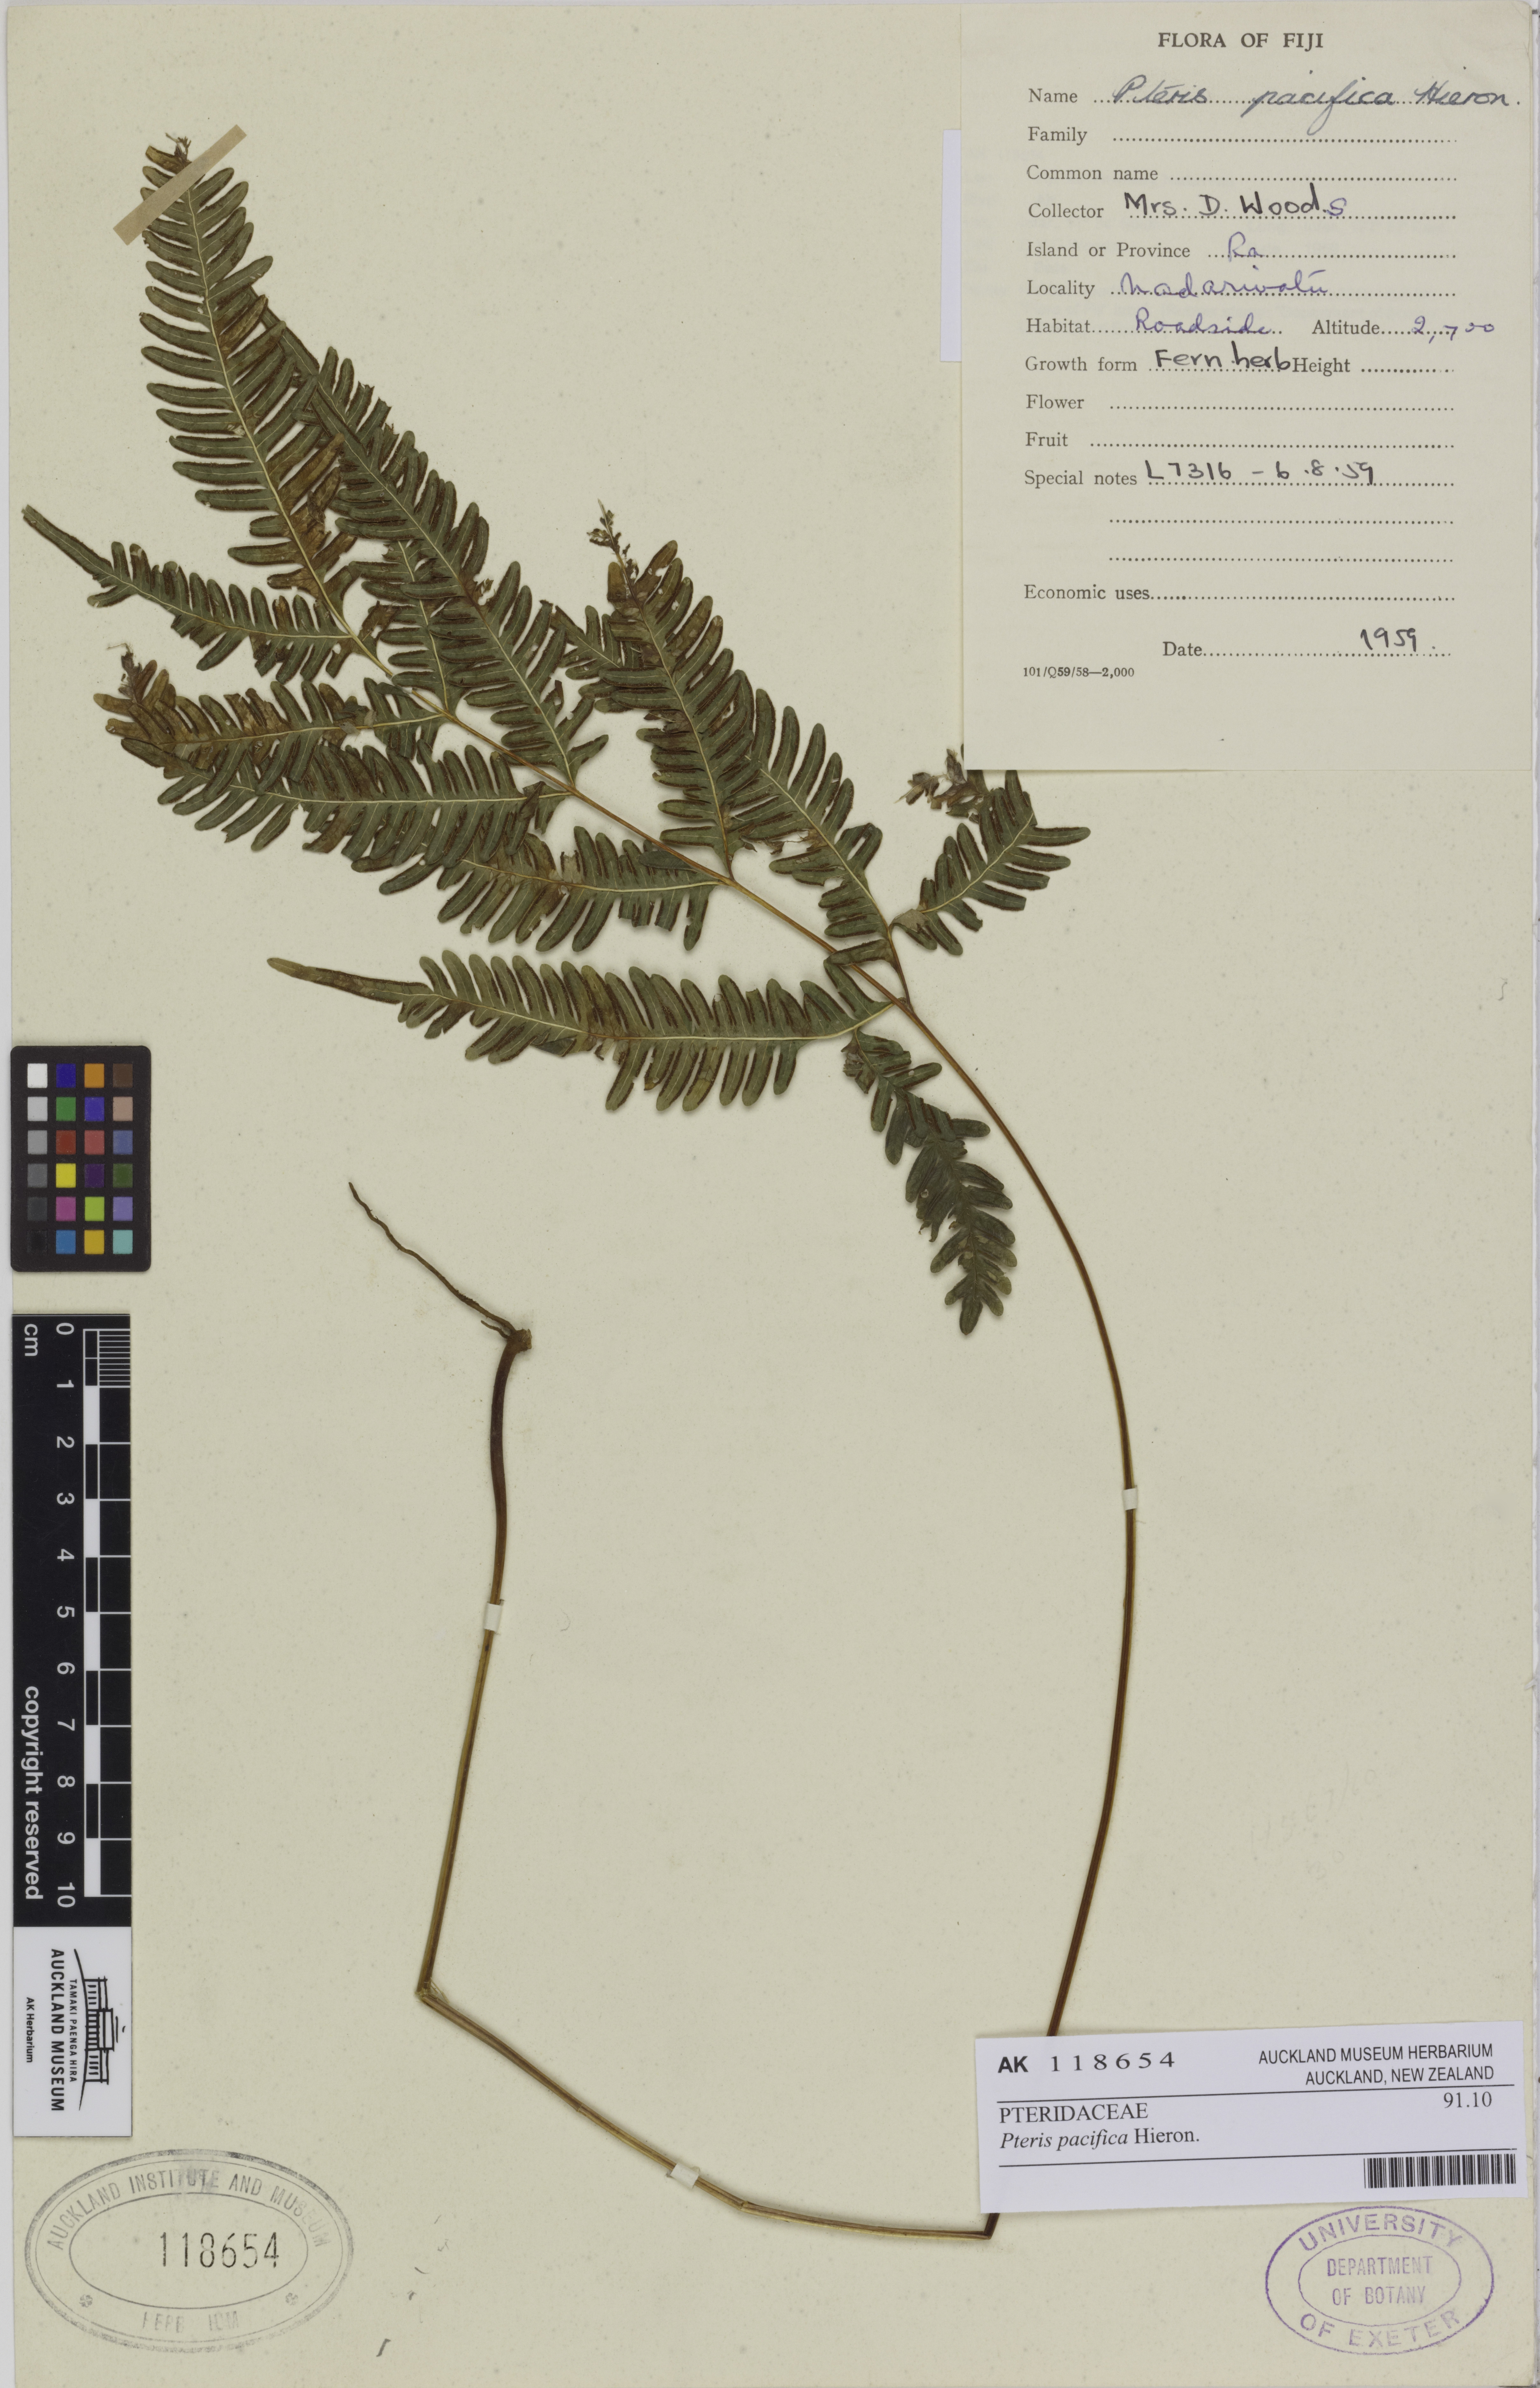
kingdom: Plantae
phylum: Tracheophyta
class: Polypodiopsida
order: Polypodiales
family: Pteridaceae
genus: Pteris
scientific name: Pteris biaurita
